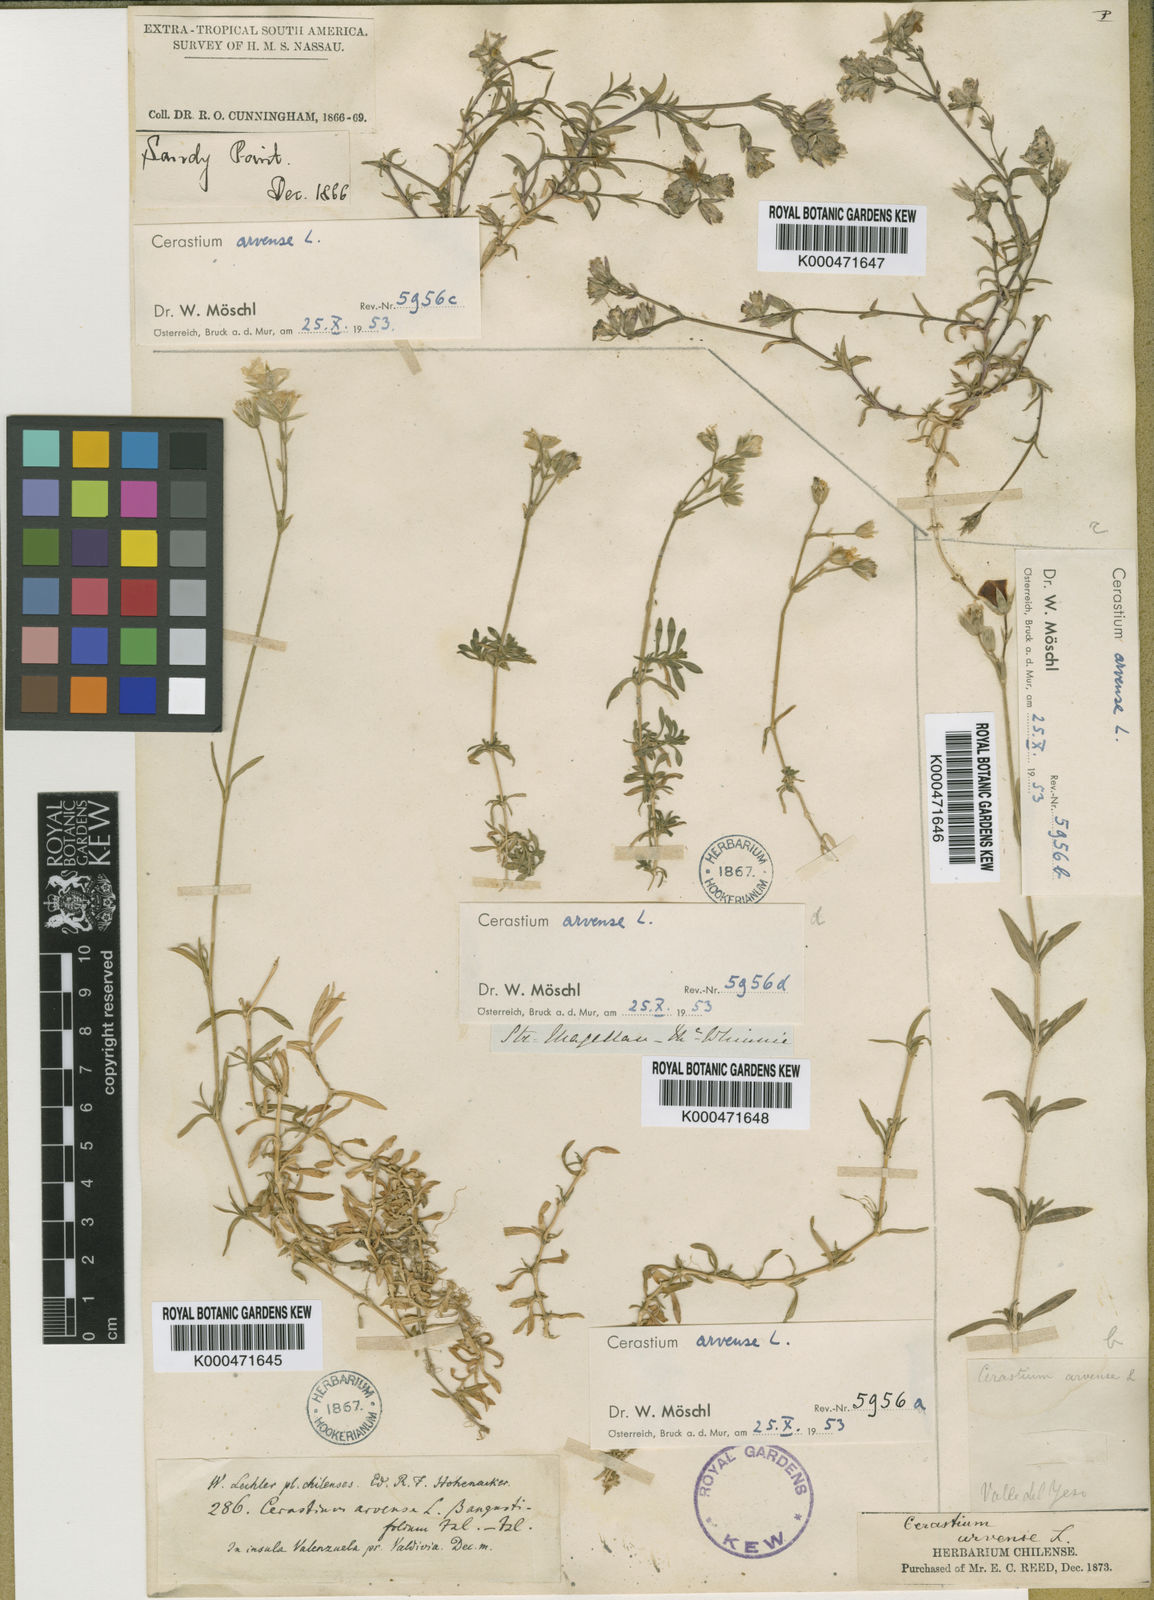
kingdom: Plantae
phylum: Tracheophyta
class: Magnoliopsida
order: Caryophyllales
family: Caryophyllaceae
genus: Cerastium
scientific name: Cerastium arvense
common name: Field mouse-ear
